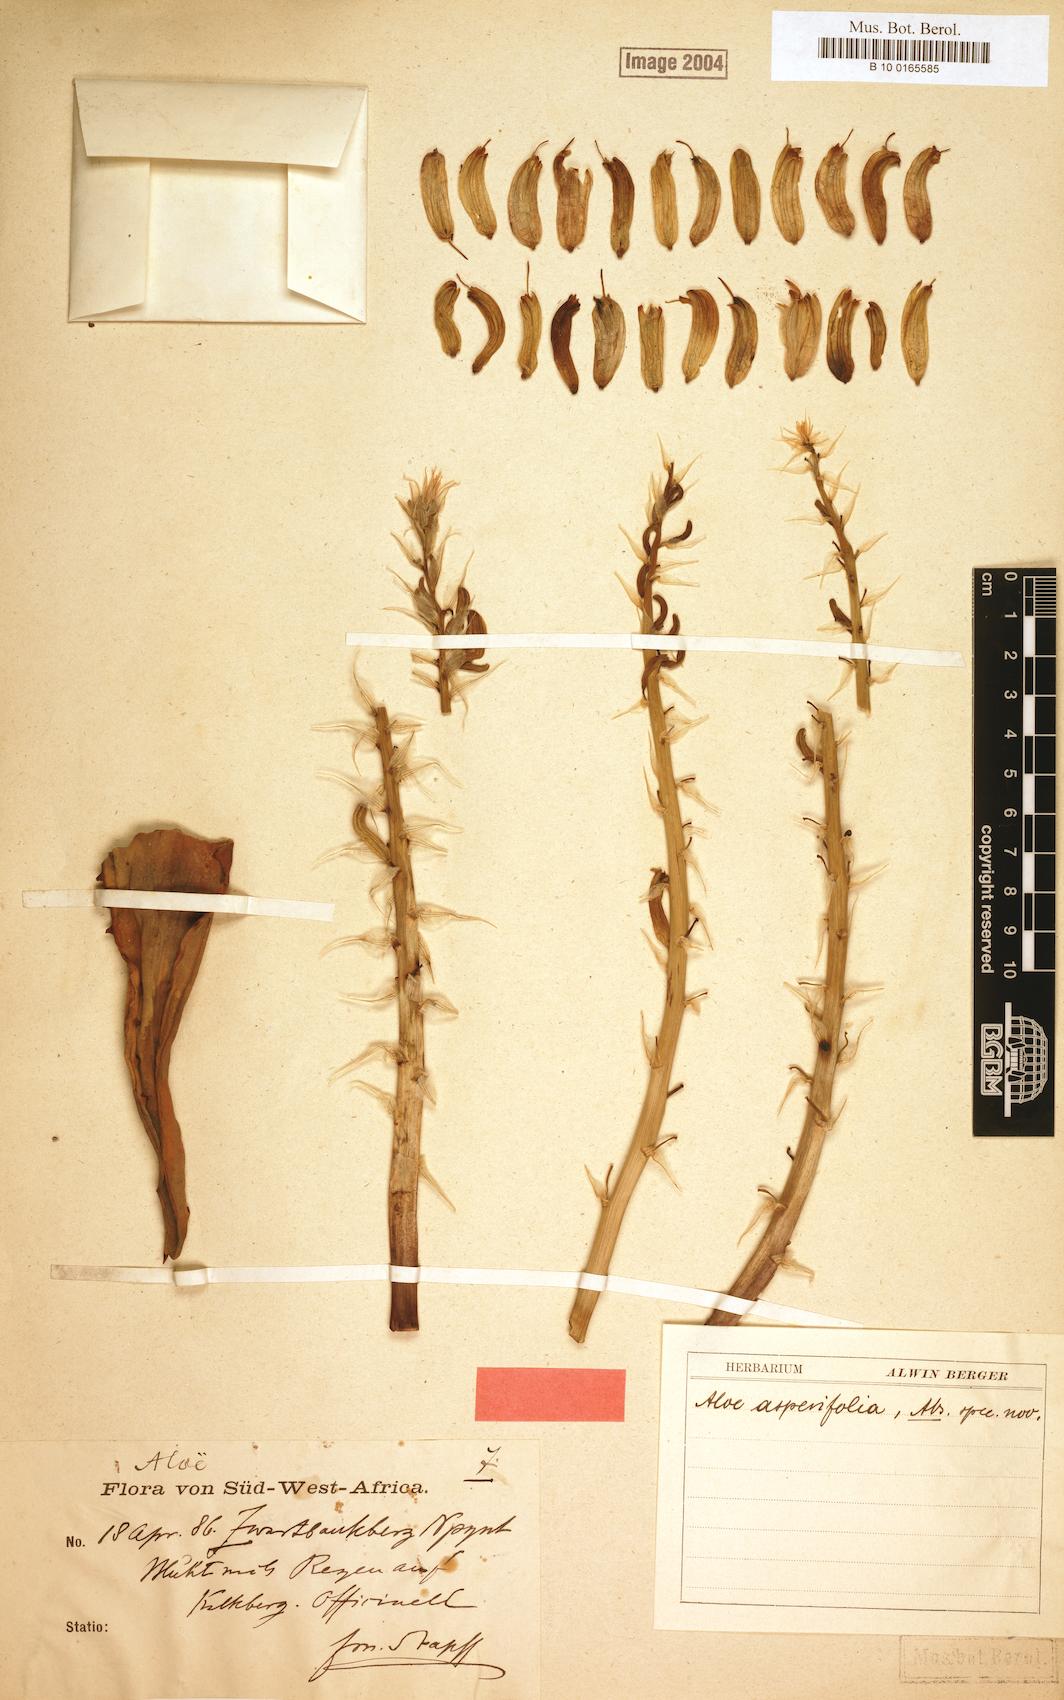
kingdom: Plantae
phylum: Tracheophyta
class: Liliopsida
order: Asparagales
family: Asphodelaceae
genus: Aloe
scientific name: Aloe asperifolia
